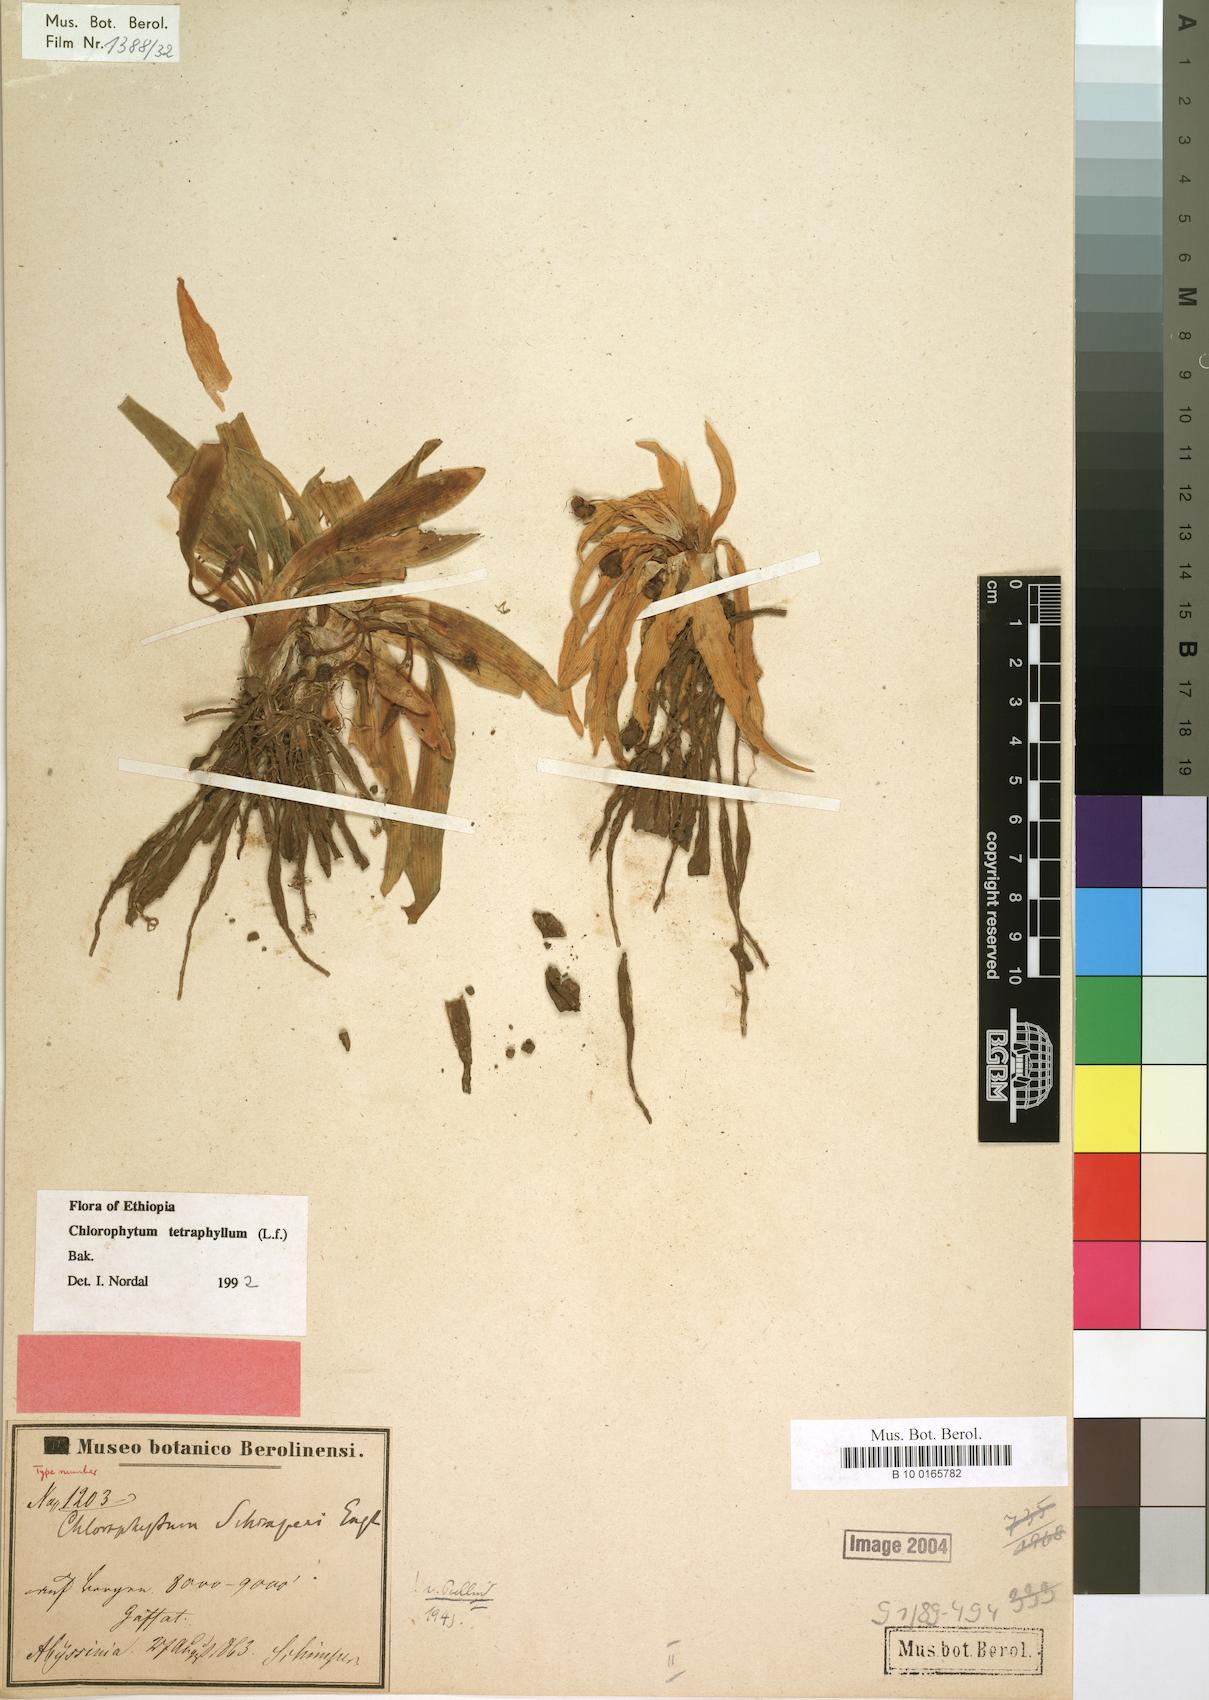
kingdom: Plantae
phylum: Tracheophyta
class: Liliopsida
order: Asparagales
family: Asparagaceae
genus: Chlorophytum
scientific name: Chlorophytum tetraphyllum
